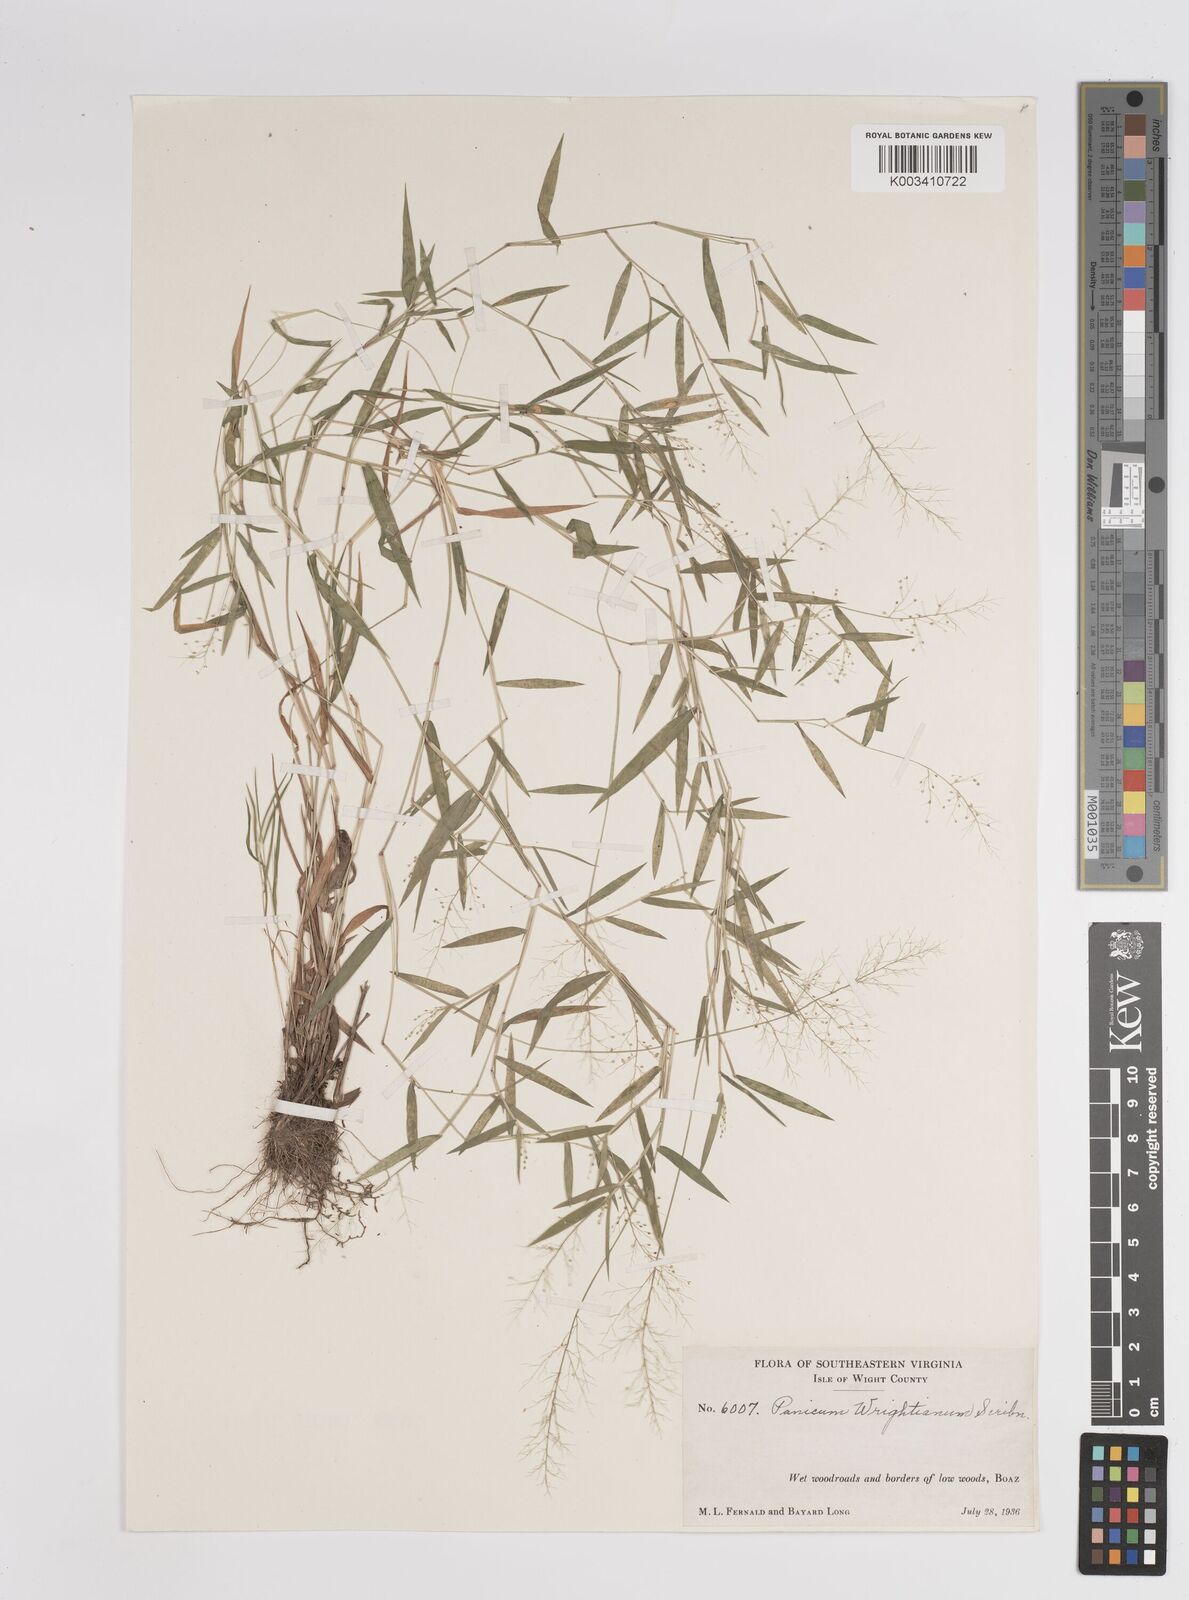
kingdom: Plantae
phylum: Tracheophyta
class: Liliopsida
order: Poales
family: Poaceae
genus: Dichanthelium
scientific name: Dichanthelium wrightianum
